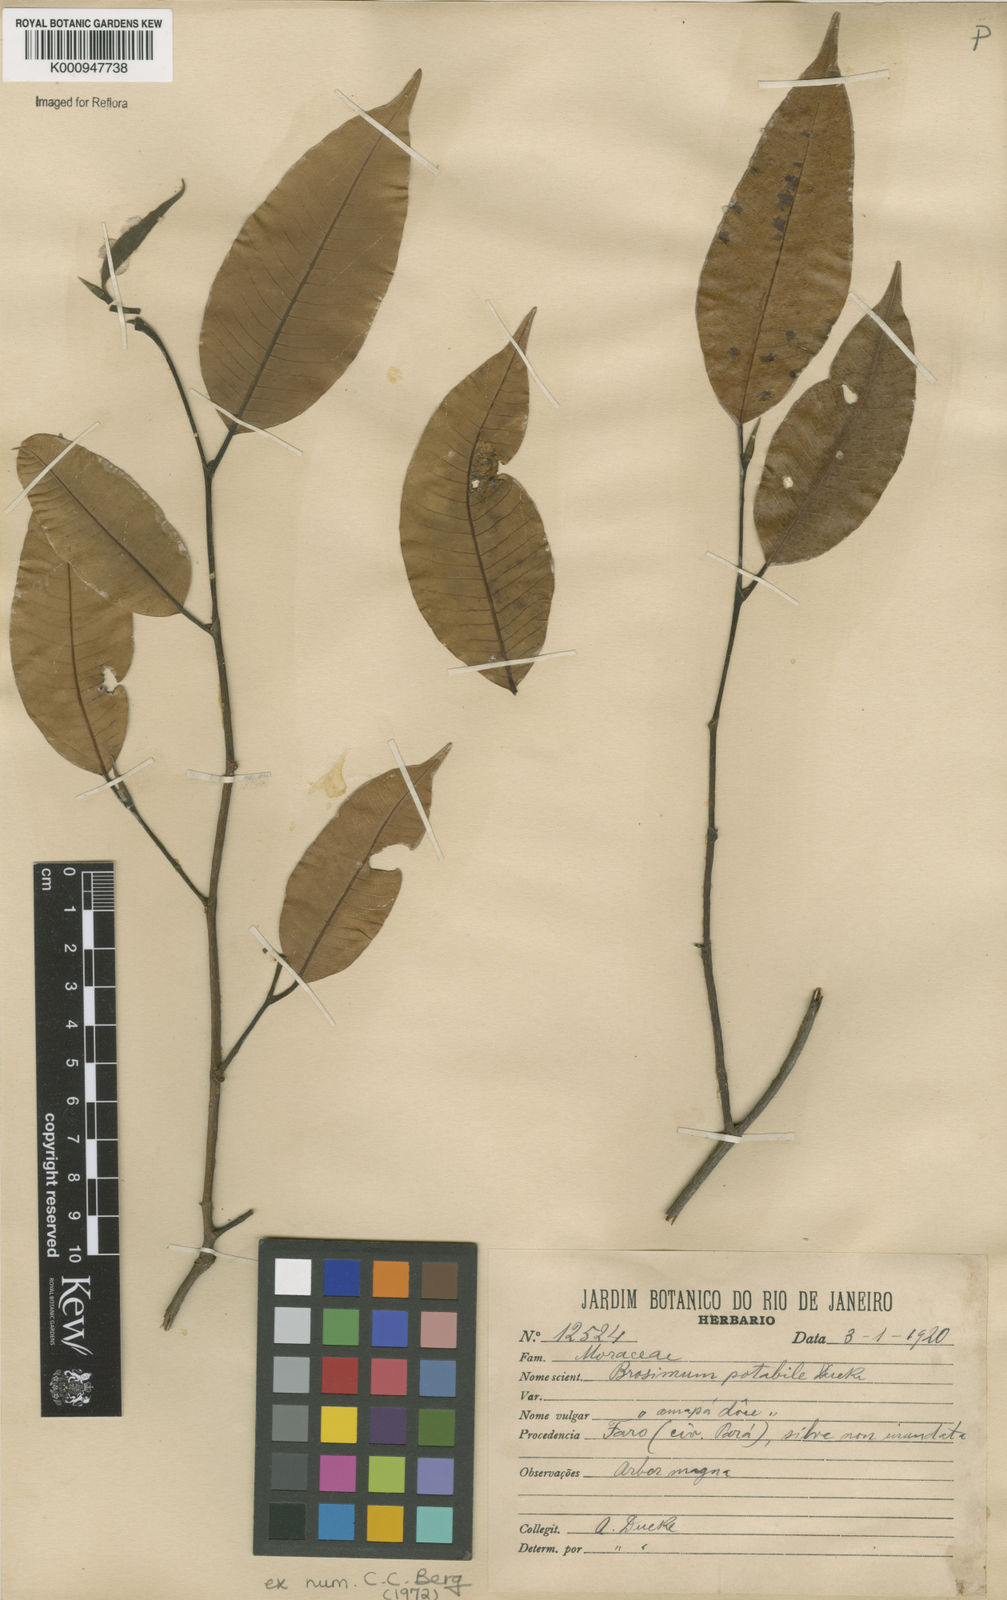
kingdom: Plantae
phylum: Tracheophyta
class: Magnoliopsida
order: Rosales
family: Moraceae
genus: Brosimum
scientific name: Brosimum potabile
